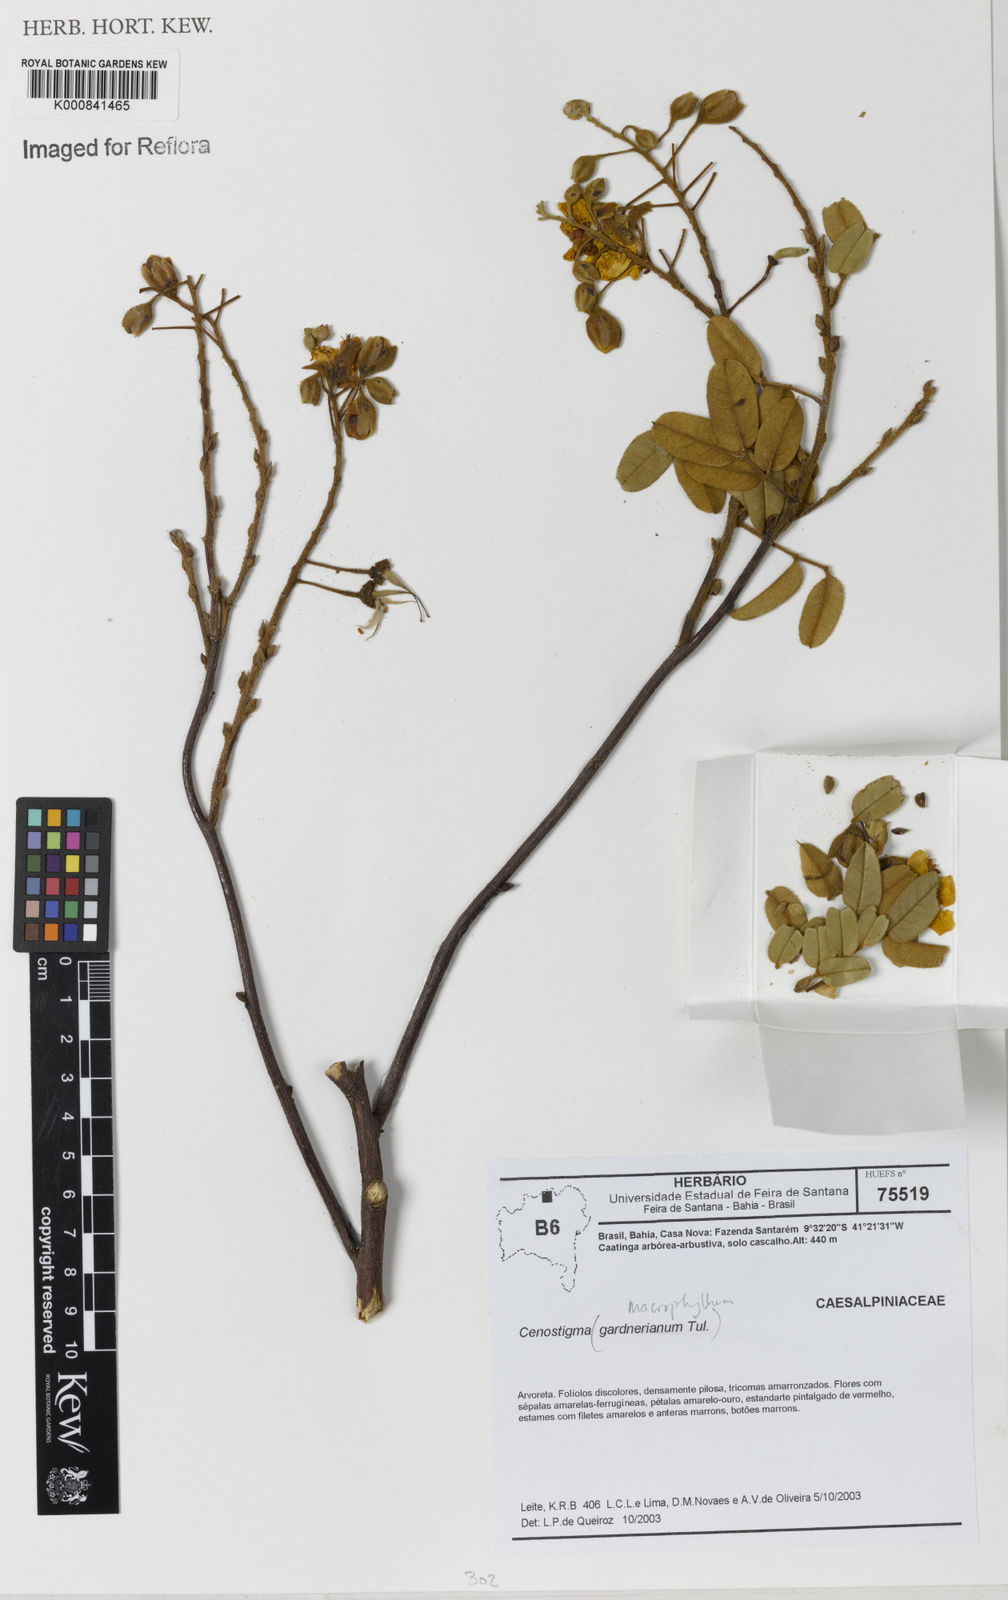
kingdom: Plantae
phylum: Tracheophyta
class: Magnoliopsida
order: Fabales
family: Fabaceae
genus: Cenostigma
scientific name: Cenostigma macrophyllum
